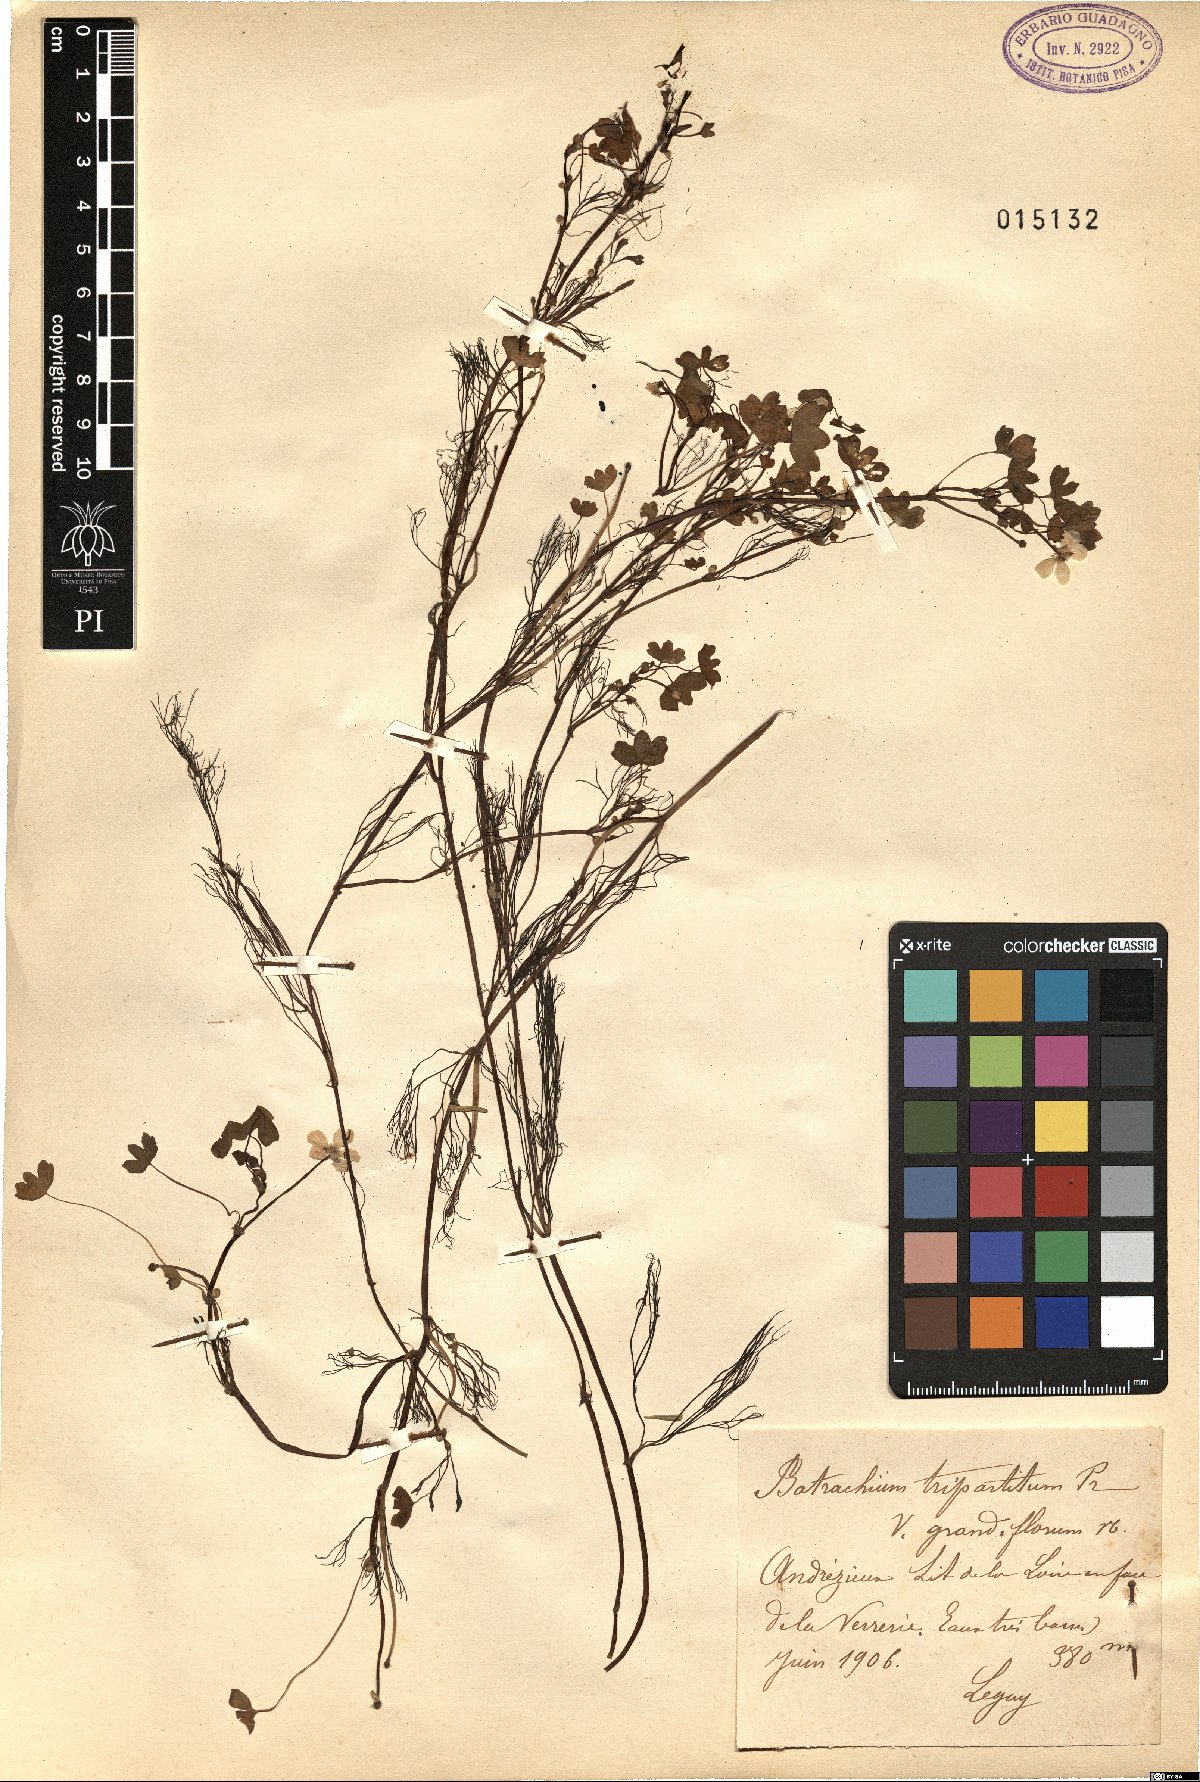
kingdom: Plantae
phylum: Tracheophyta
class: Magnoliopsida
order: Ranunculales
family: Ranunculaceae
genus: Ranunculus
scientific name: Ranunculus tripartitus
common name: Three-lobed crowfoot
